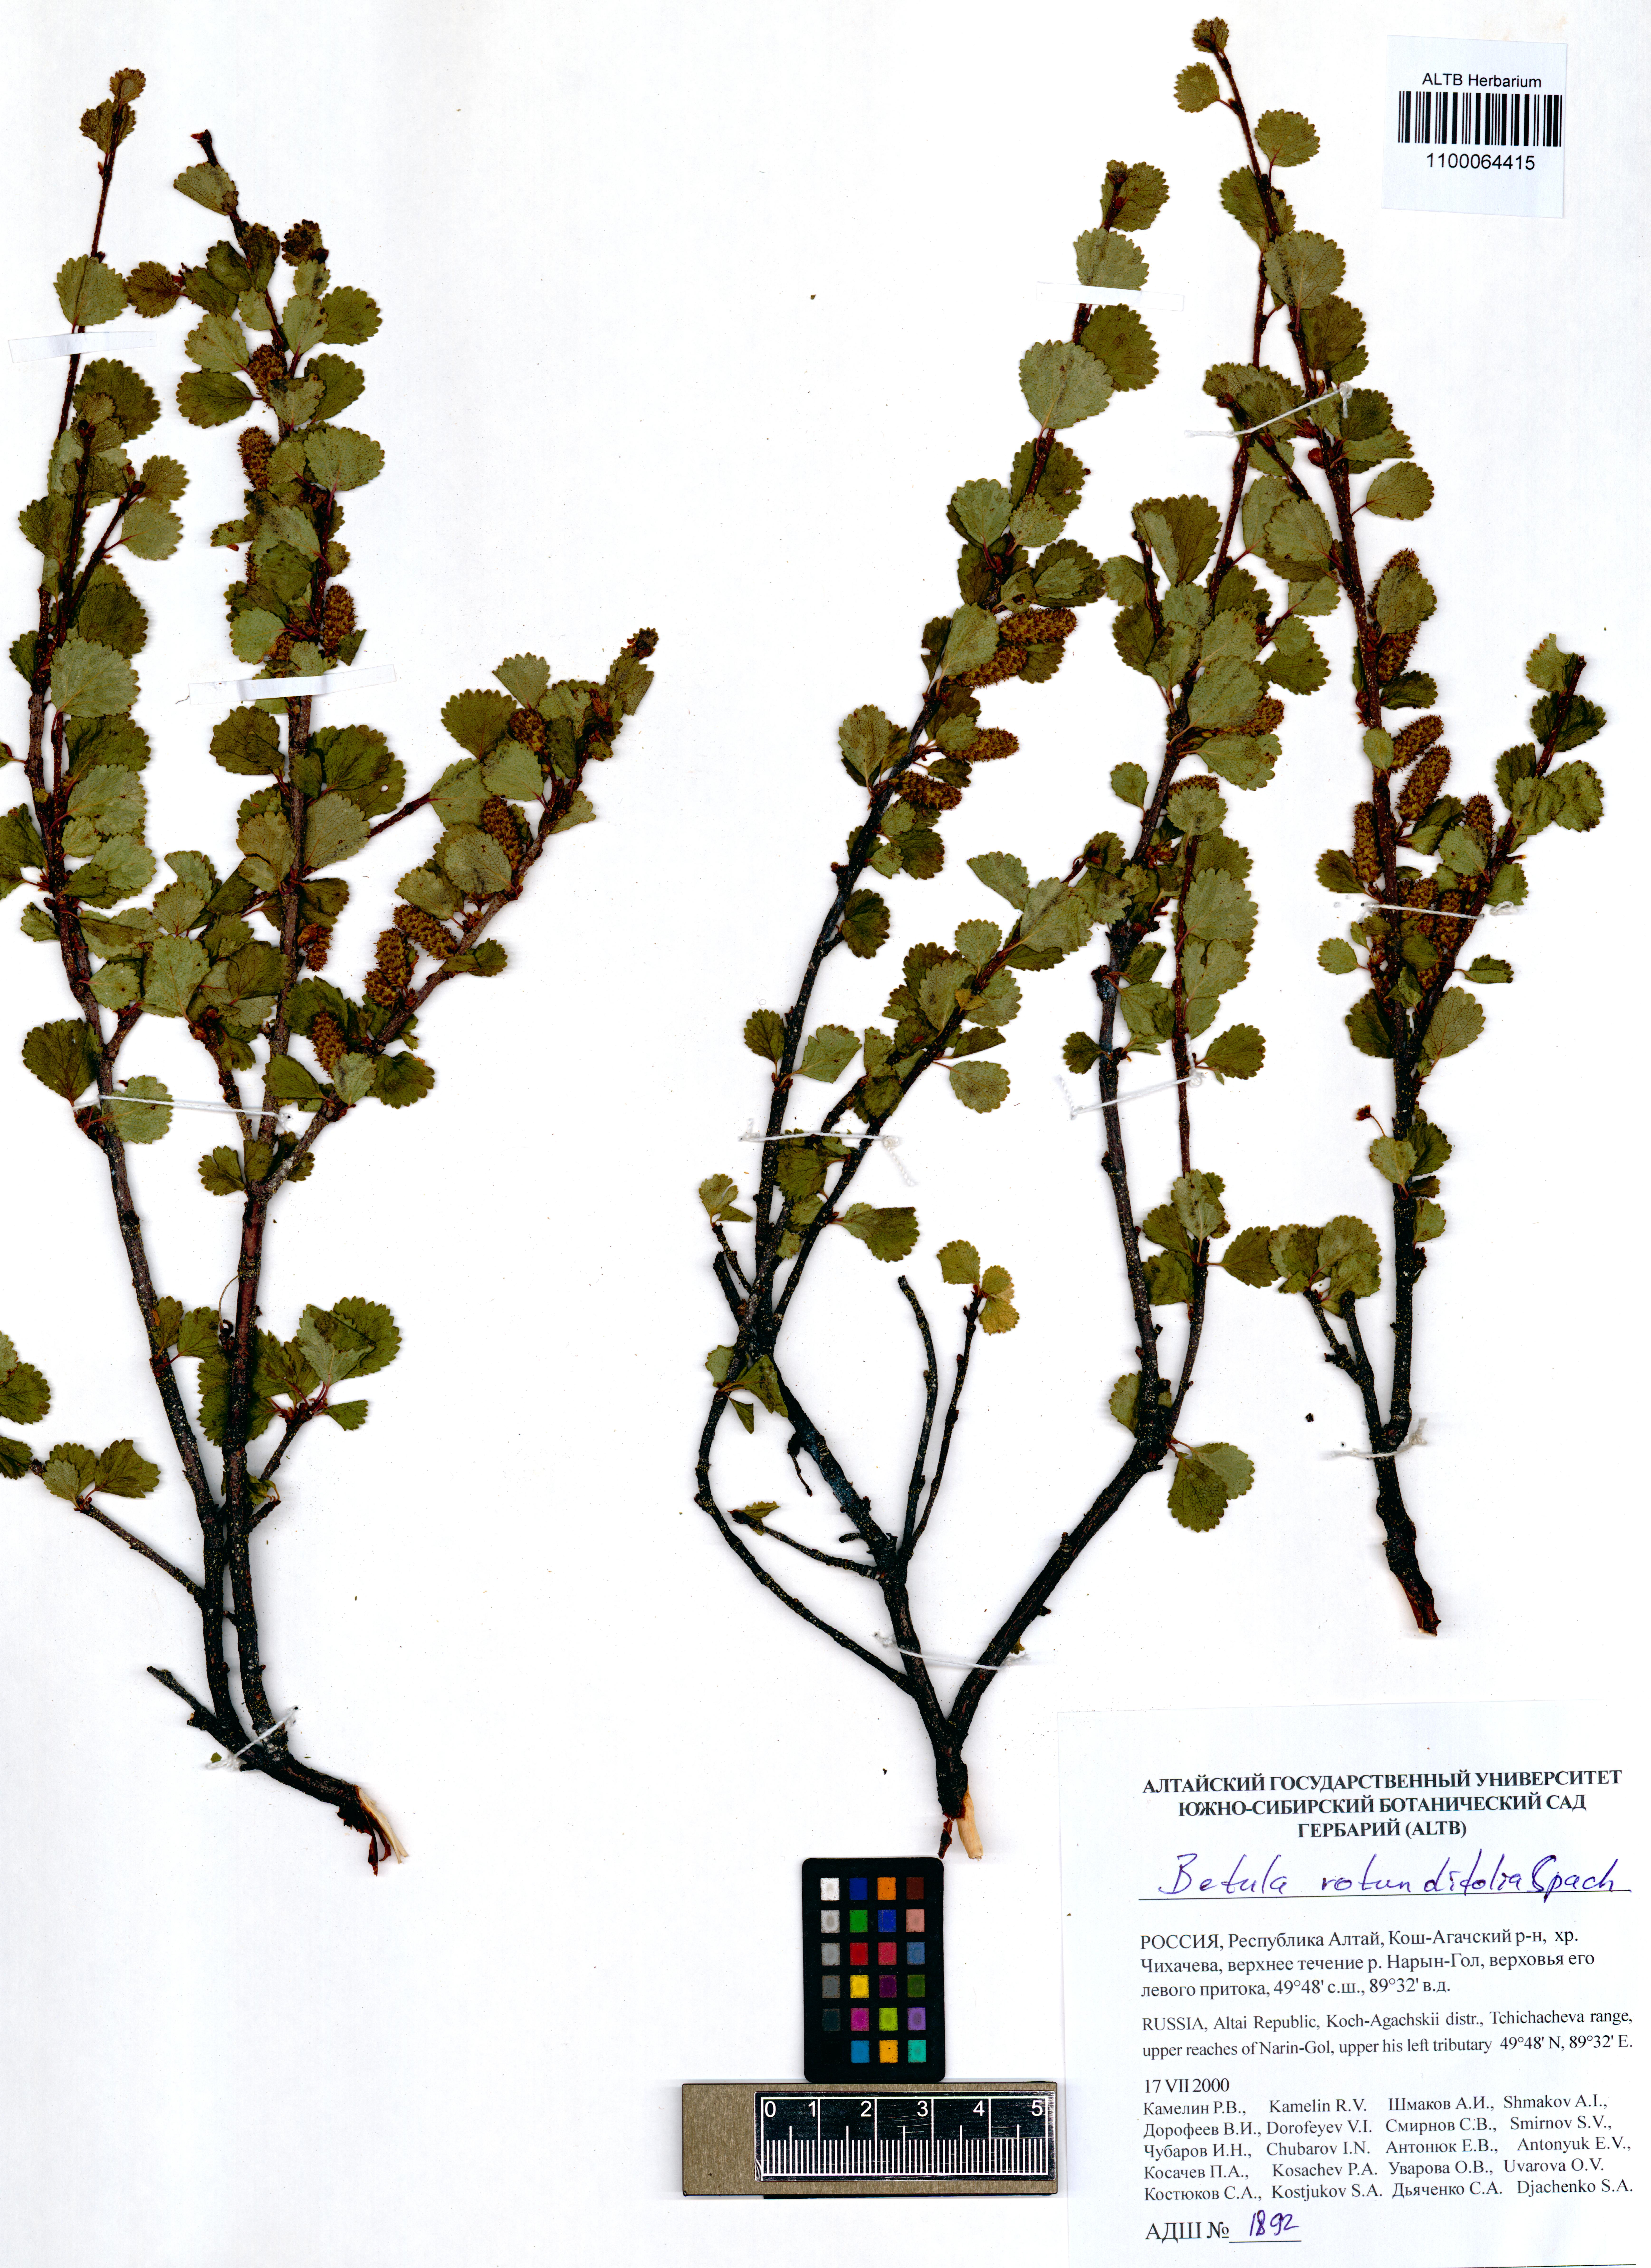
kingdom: Plantae
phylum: Tracheophyta
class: Magnoliopsida
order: Fagales
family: Betulaceae
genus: Betula
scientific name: Betula glandulosa
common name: Dwarf birch
